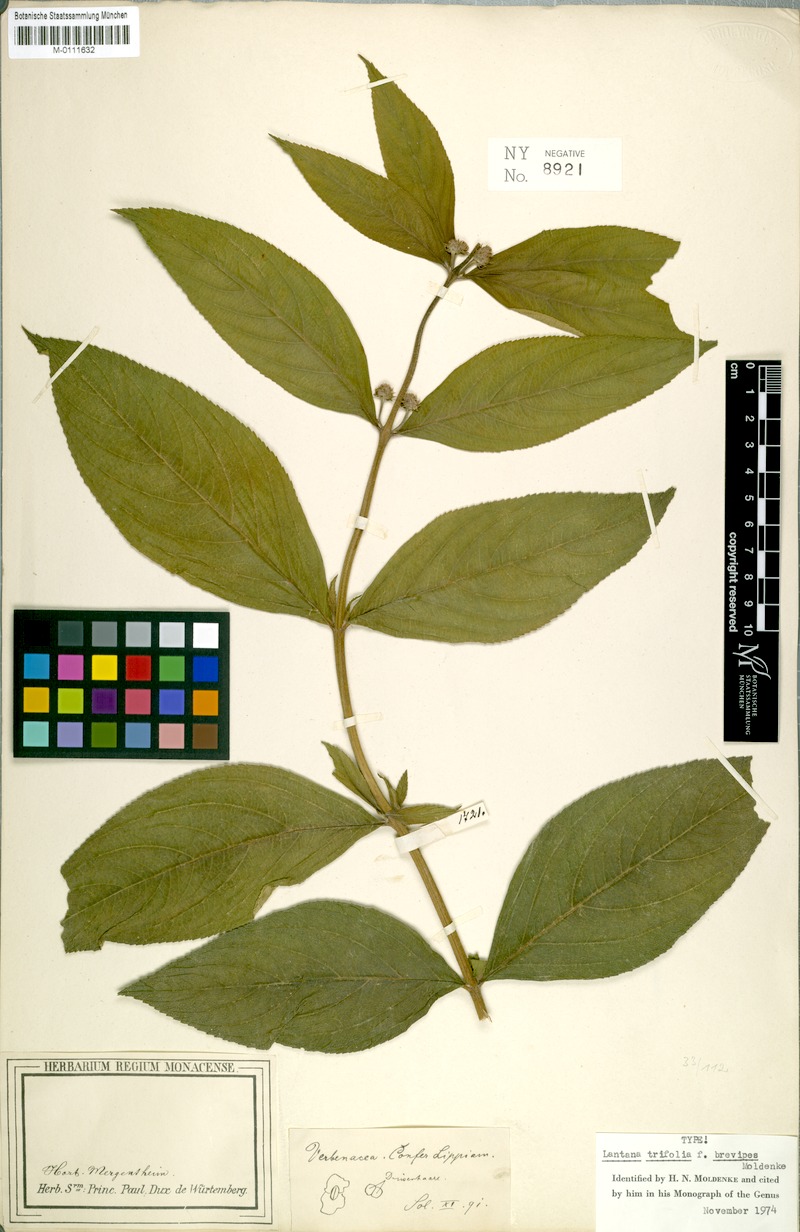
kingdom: Plantae
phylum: Tracheophyta
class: Magnoliopsida
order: Lamiales
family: Verbenaceae
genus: Lantana
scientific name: Lantana trifolia
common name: Sweet-sage
